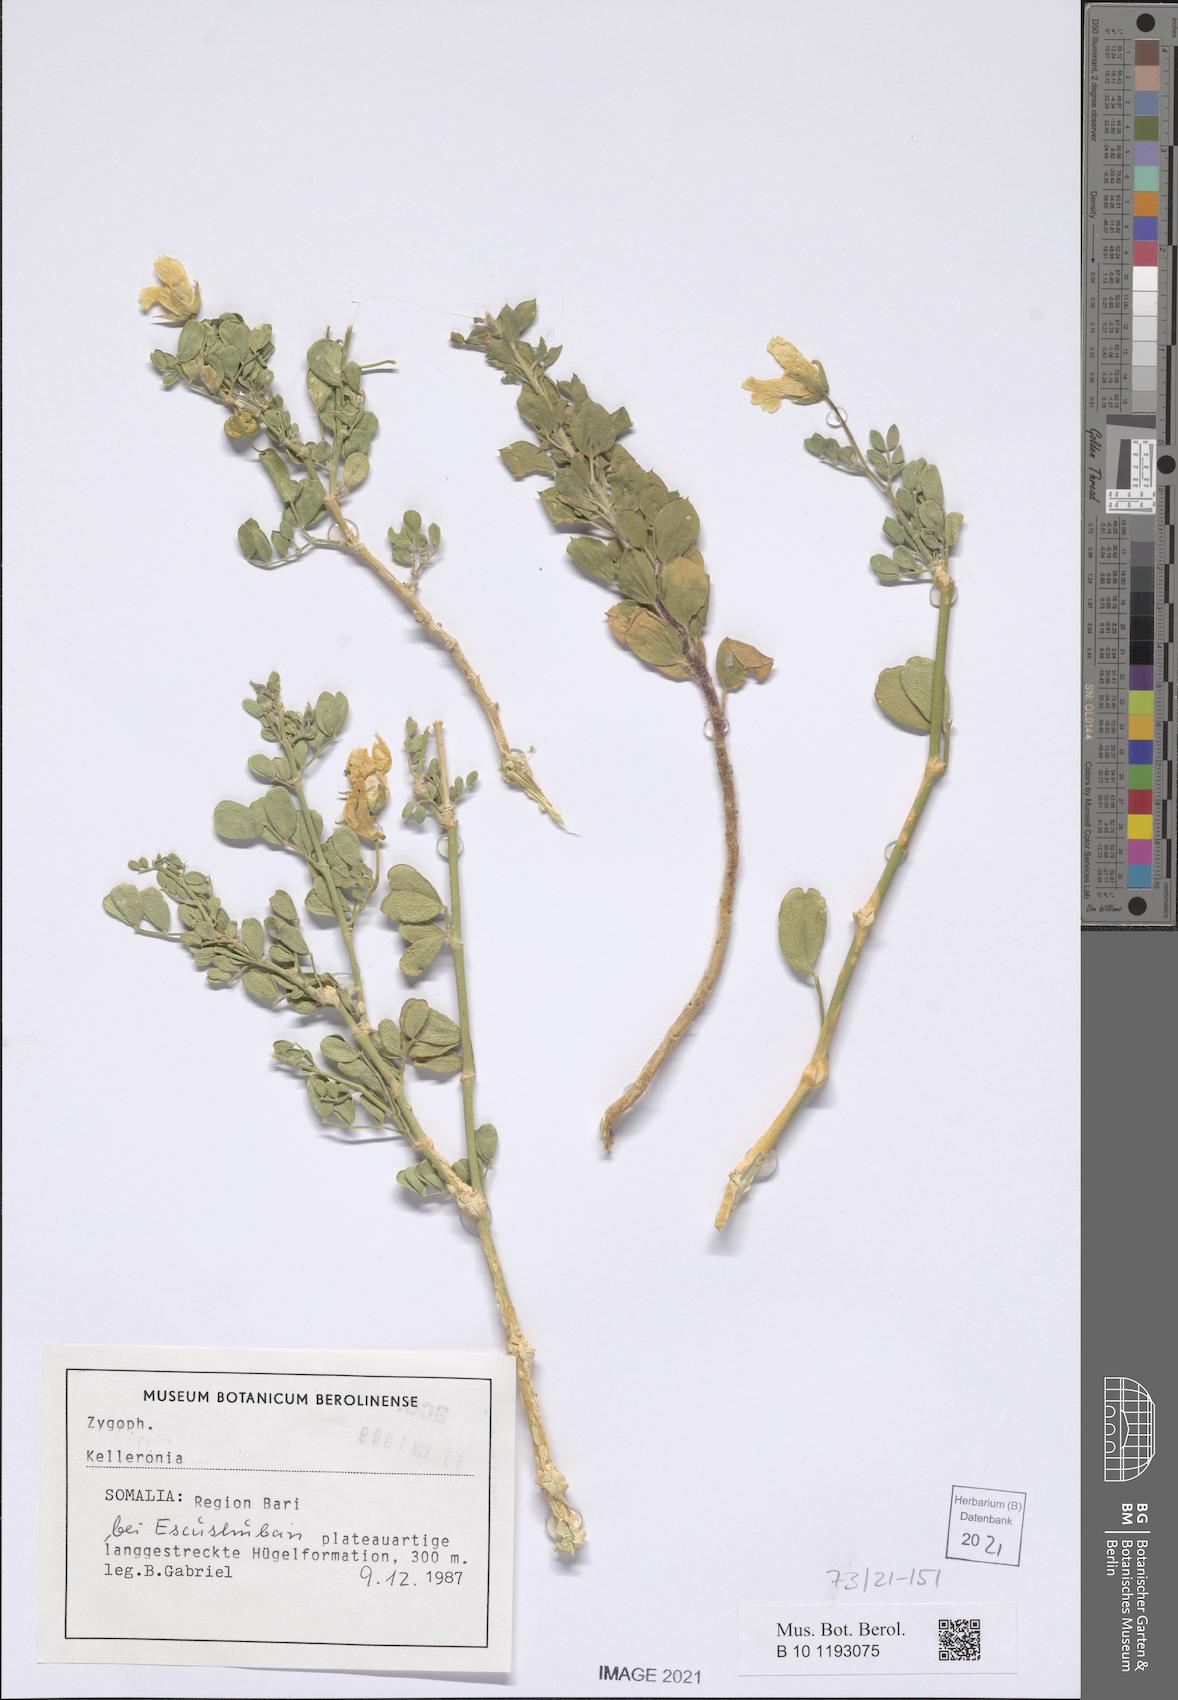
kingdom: Plantae
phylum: Tracheophyta
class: Magnoliopsida
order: Zygophyllales
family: Zygophyllaceae
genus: Kelleronia
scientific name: Kelleronia
